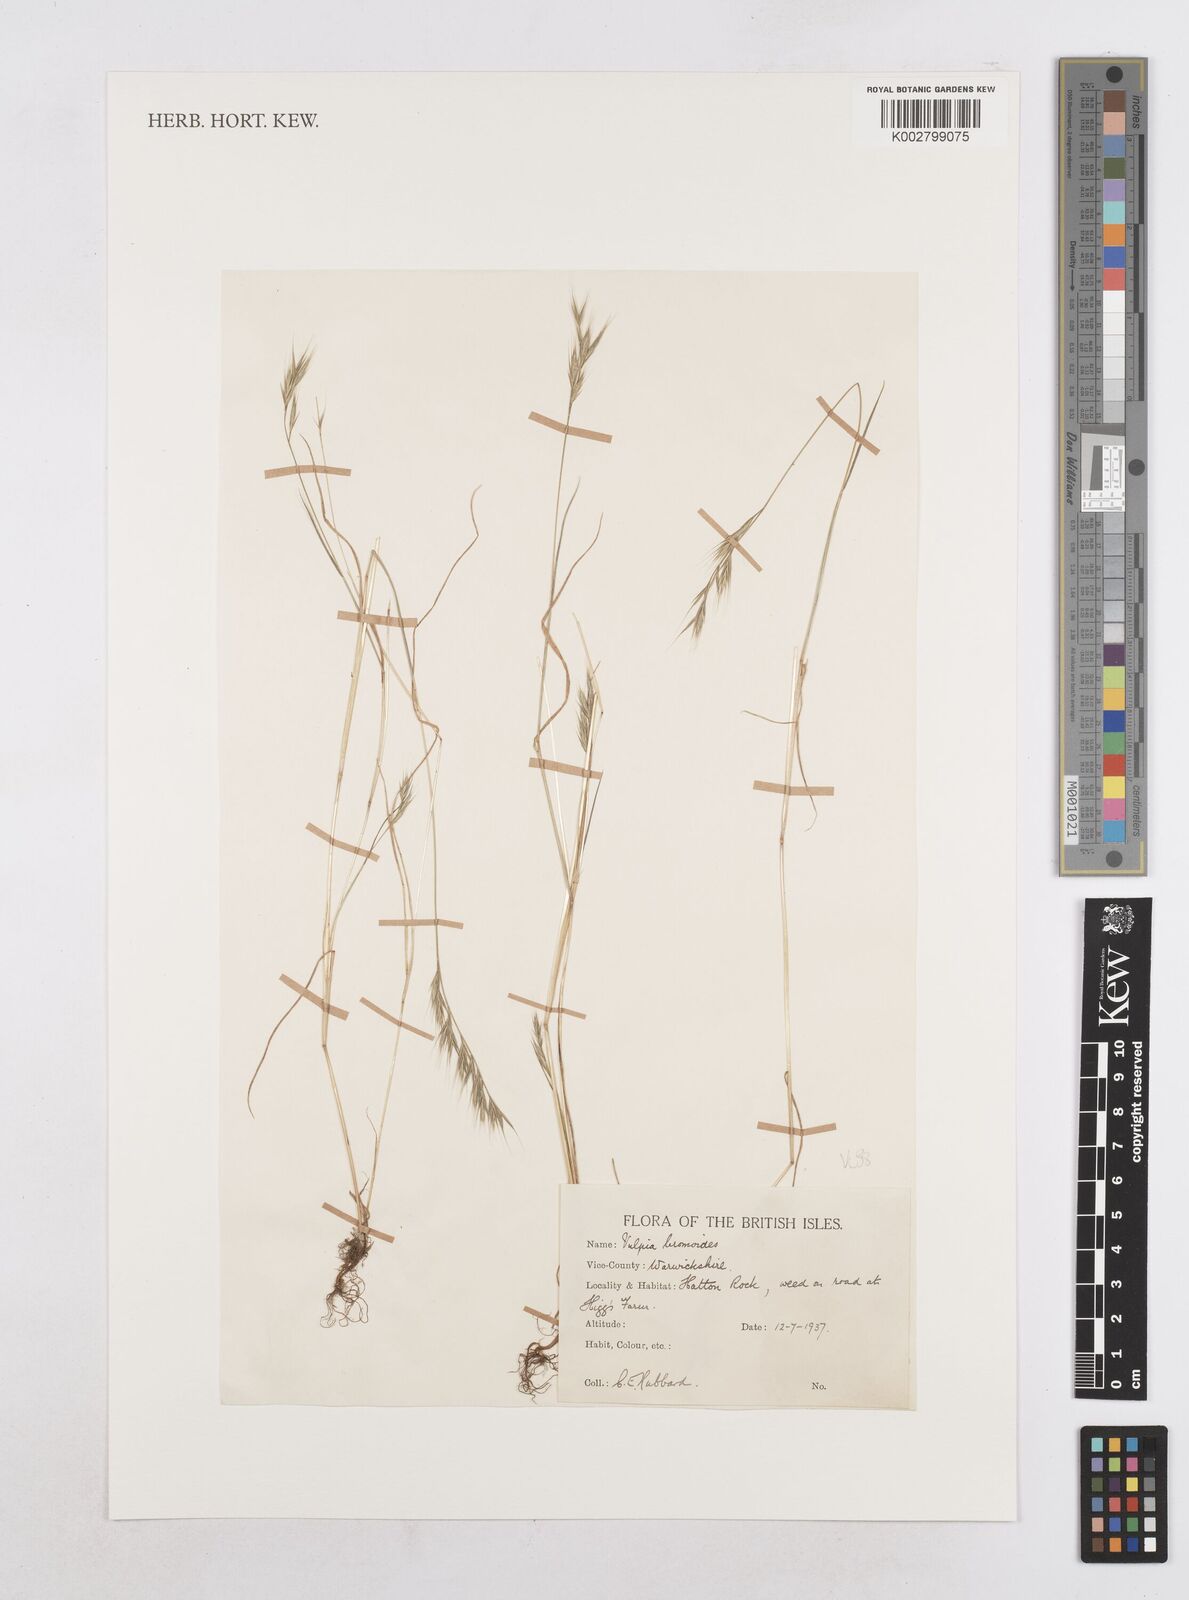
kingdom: Plantae
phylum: Tracheophyta
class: Liliopsida
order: Poales
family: Poaceae
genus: Festuca
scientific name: Festuca bromoides
